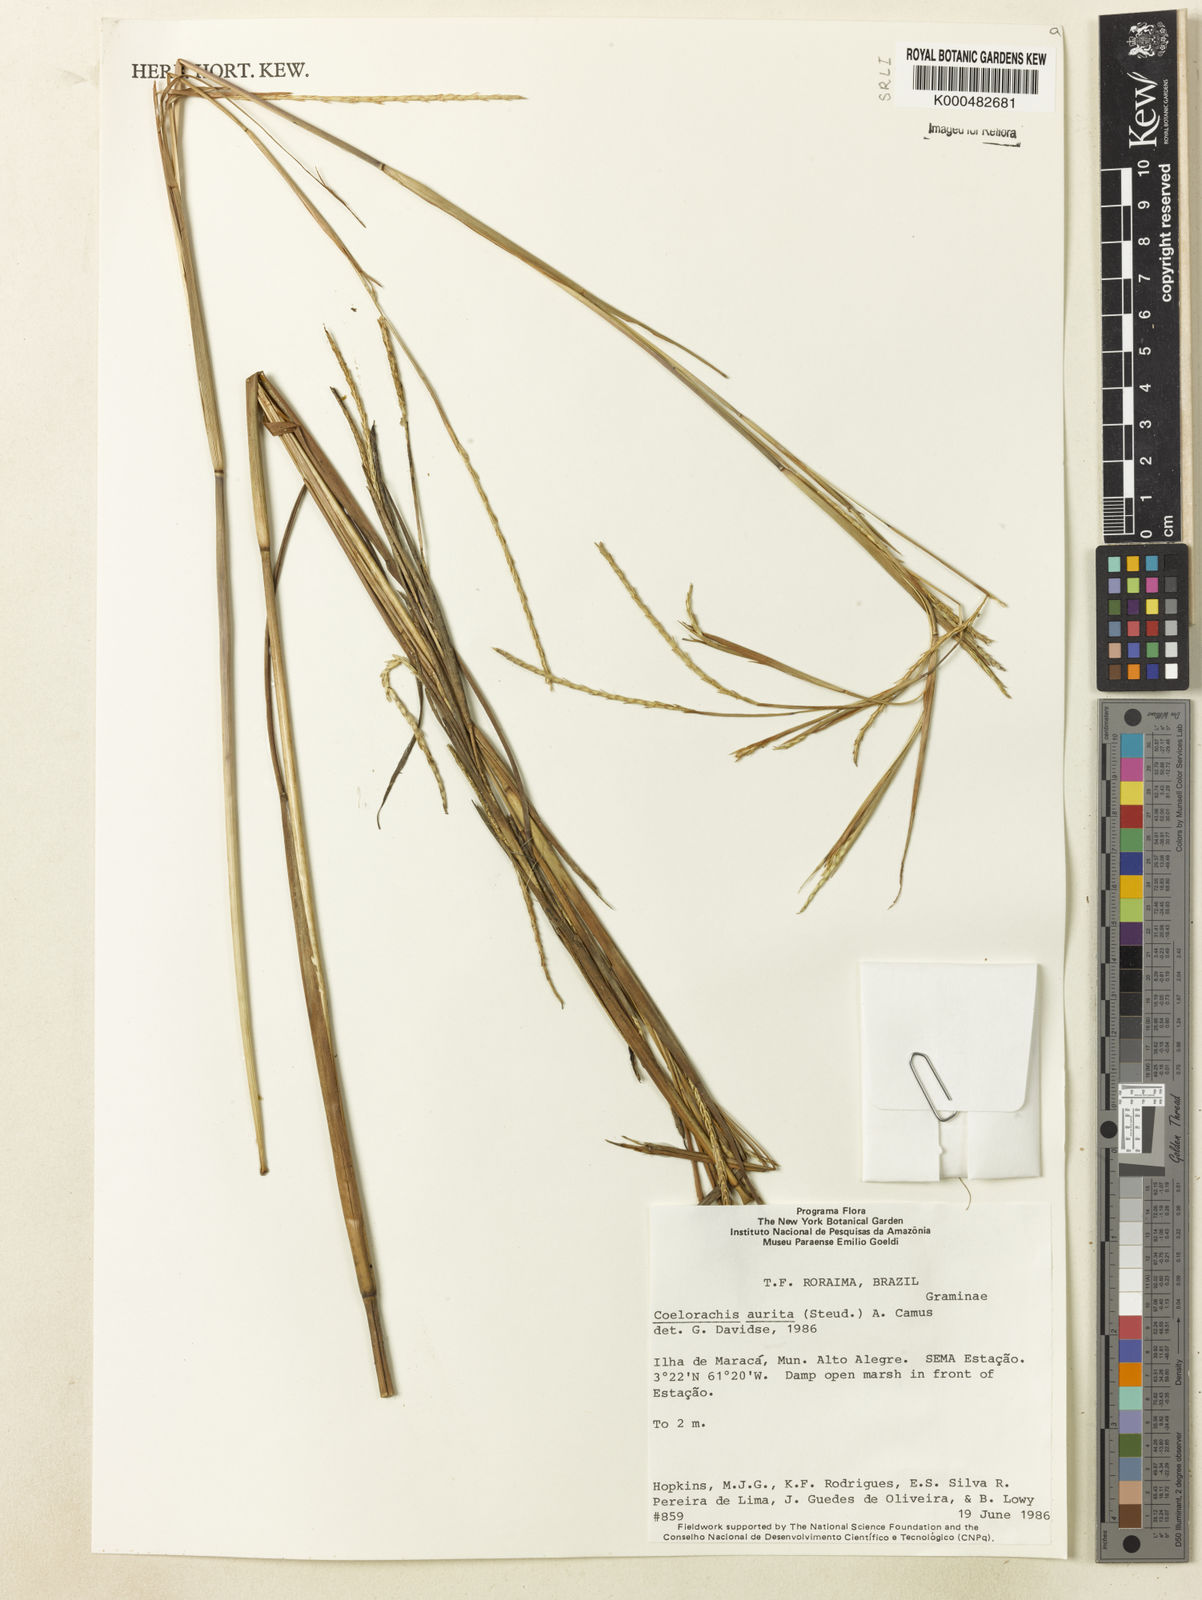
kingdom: Plantae
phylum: Tracheophyta
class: Liliopsida
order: Poales
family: Poaceae
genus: Rottboellia
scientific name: Rottboellia aurita
